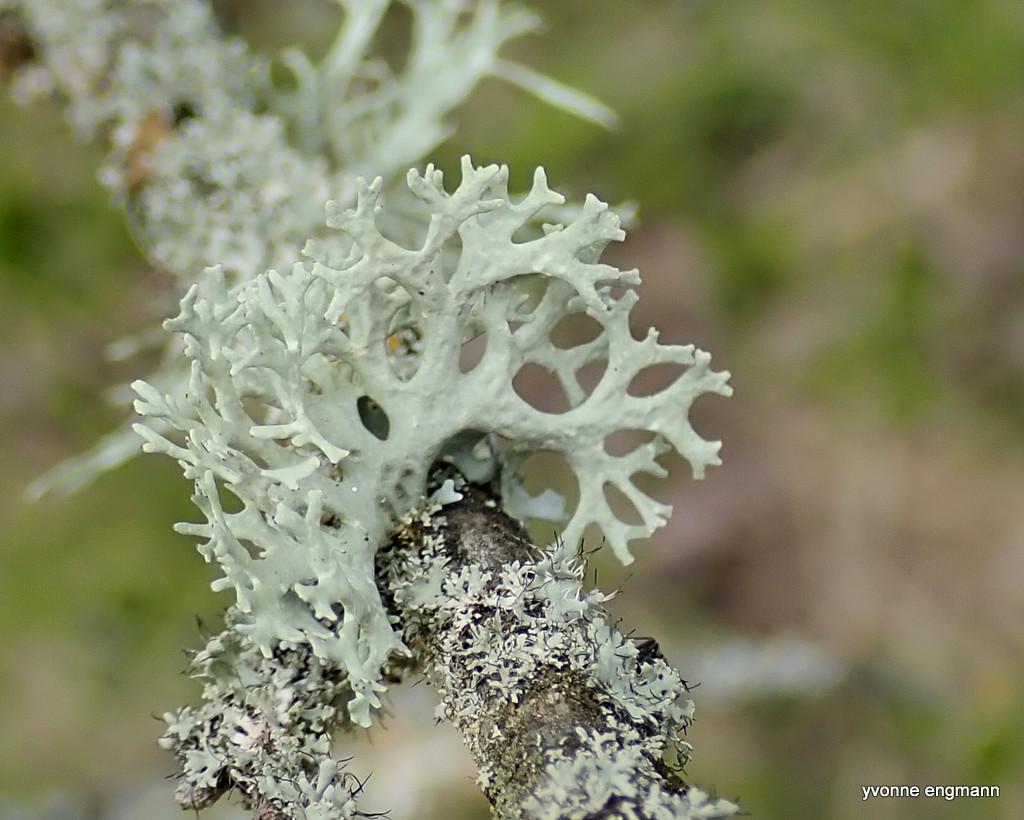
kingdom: Fungi
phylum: Ascomycota
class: Lecanoromycetes
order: Lecanorales
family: Parmeliaceae
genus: Evernia
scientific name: Evernia prunastri
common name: almindelig slåenlav
